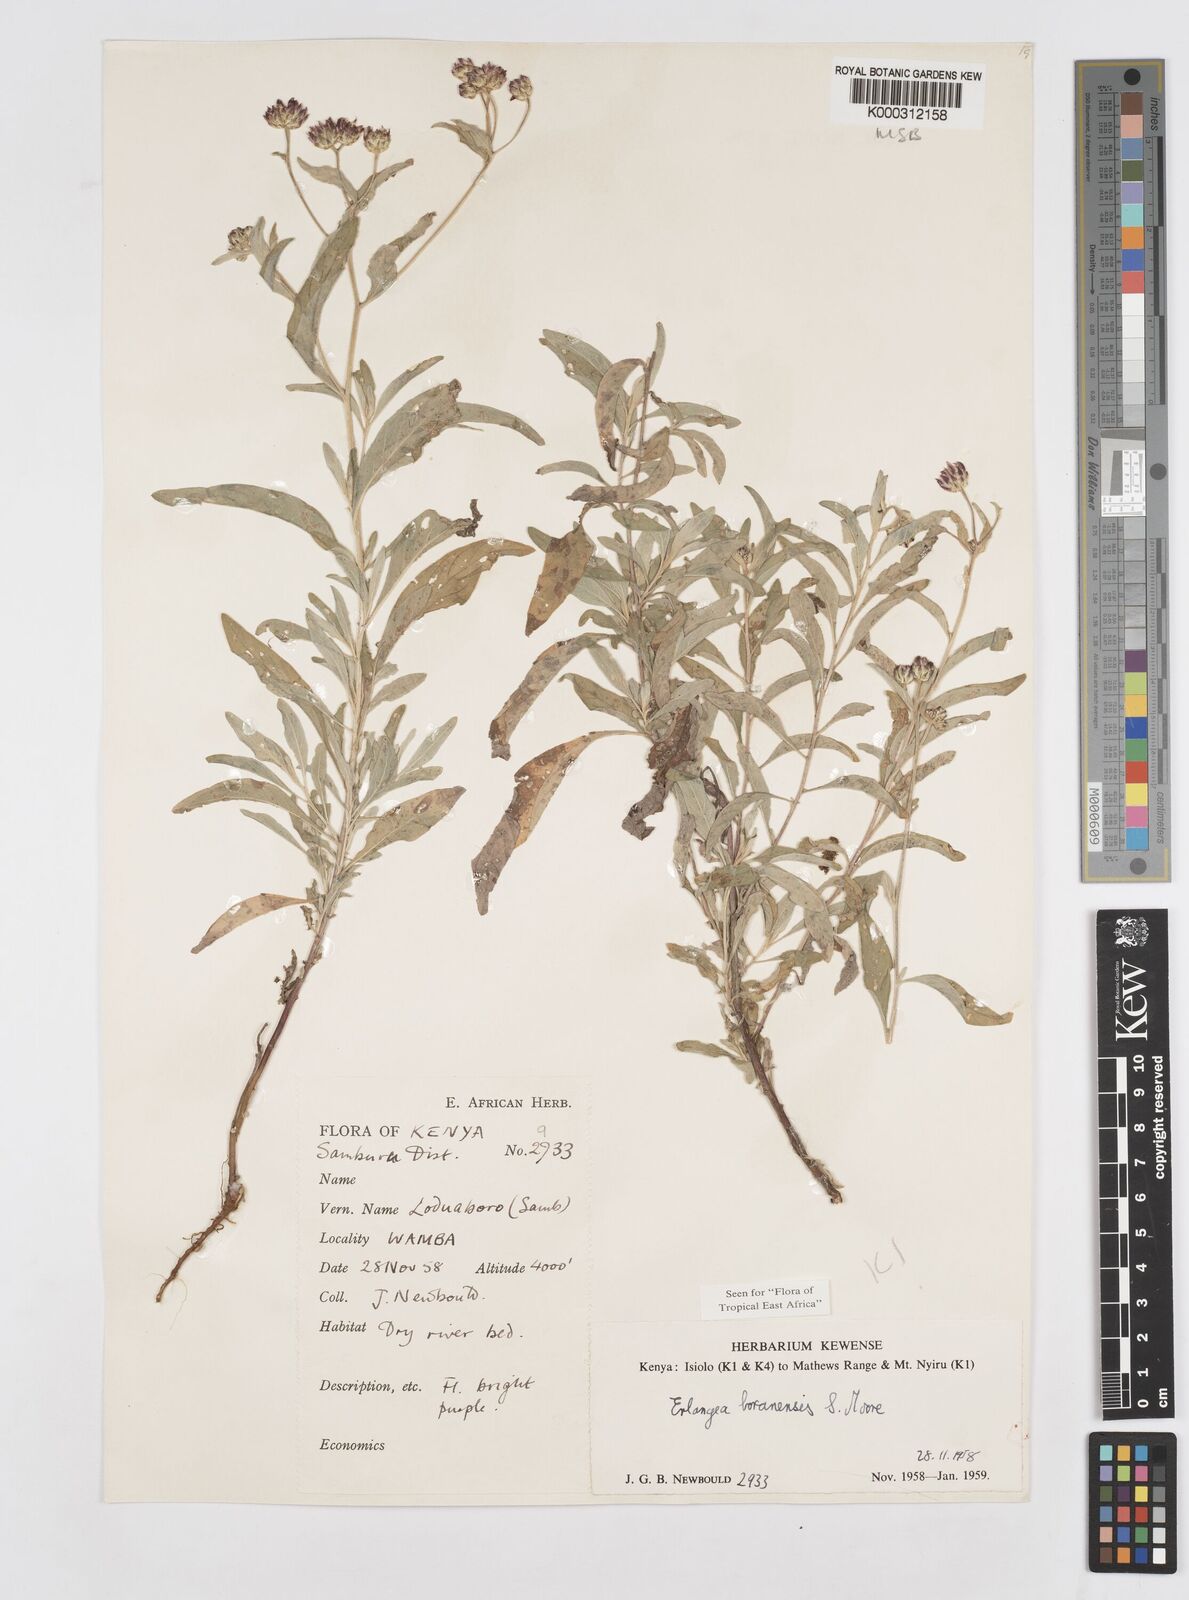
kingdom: Plantae
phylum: Tracheophyta
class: Magnoliopsida
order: Asterales
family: Asteraceae
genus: Gutenbergia
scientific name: Gutenbergia boranensis
